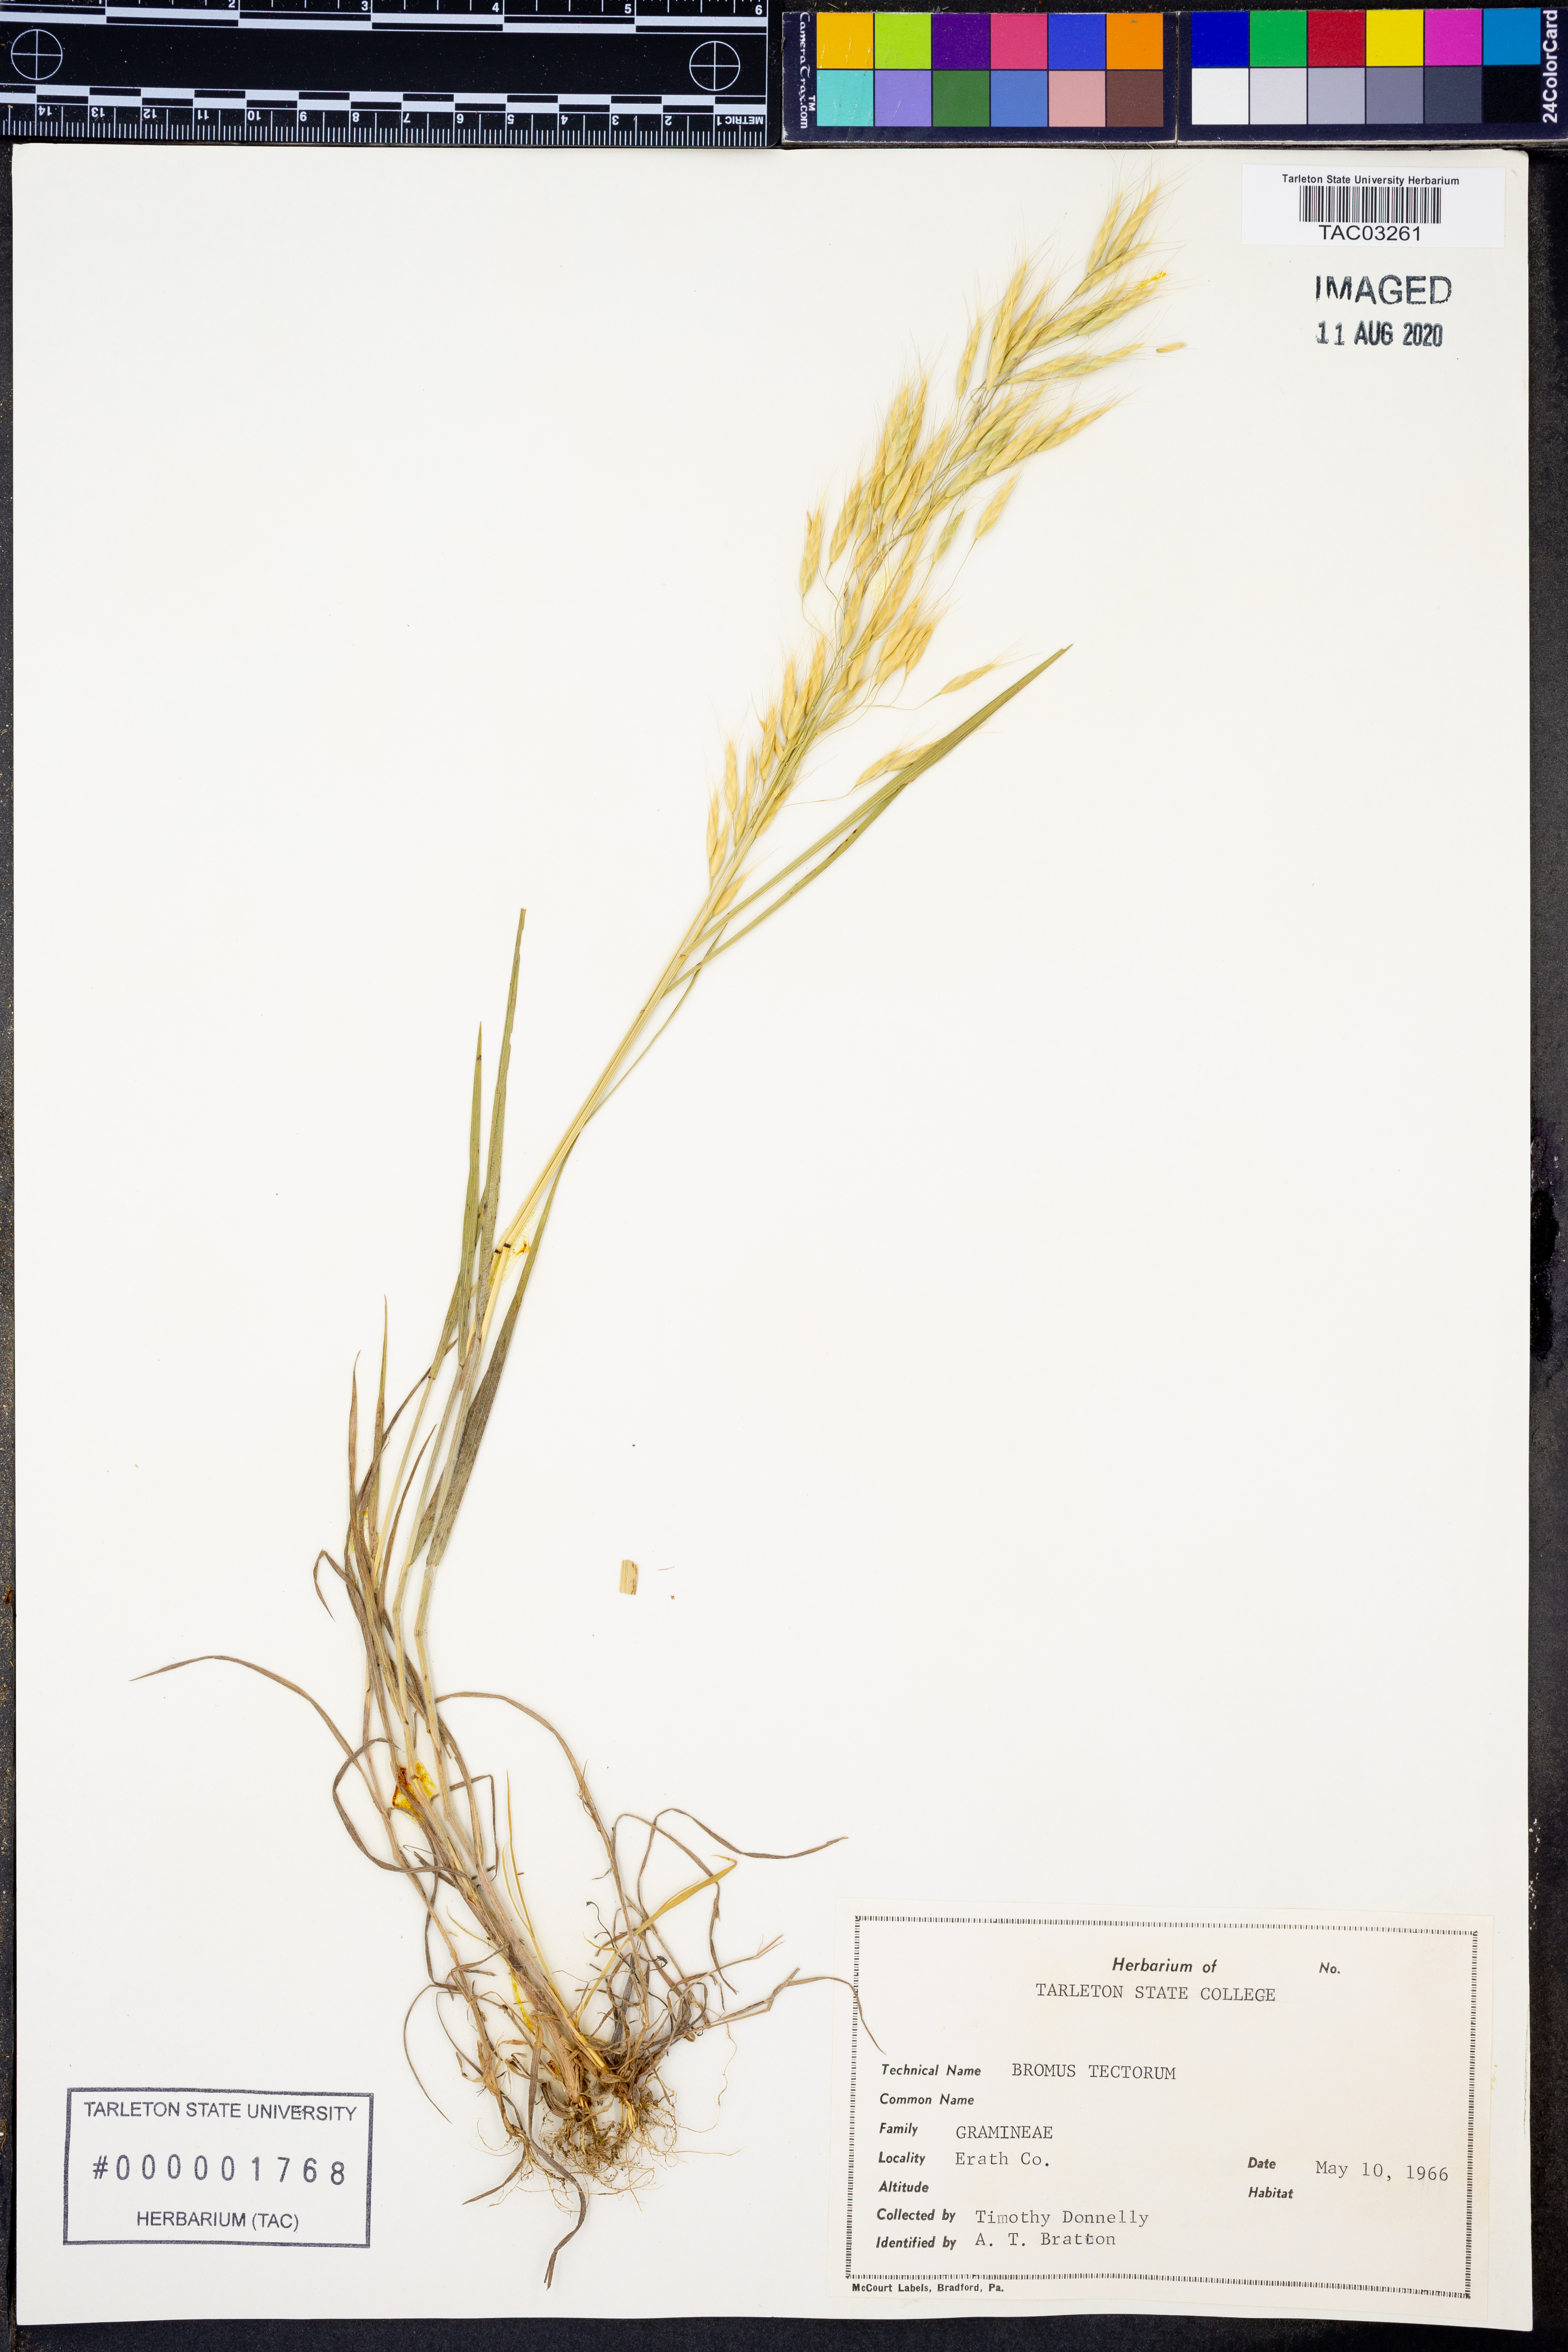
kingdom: Plantae
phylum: Tracheophyta
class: Liliopsida
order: Poales
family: Poaceae
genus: Bromus
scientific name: Bromus tectorum
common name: Cheatgrass
